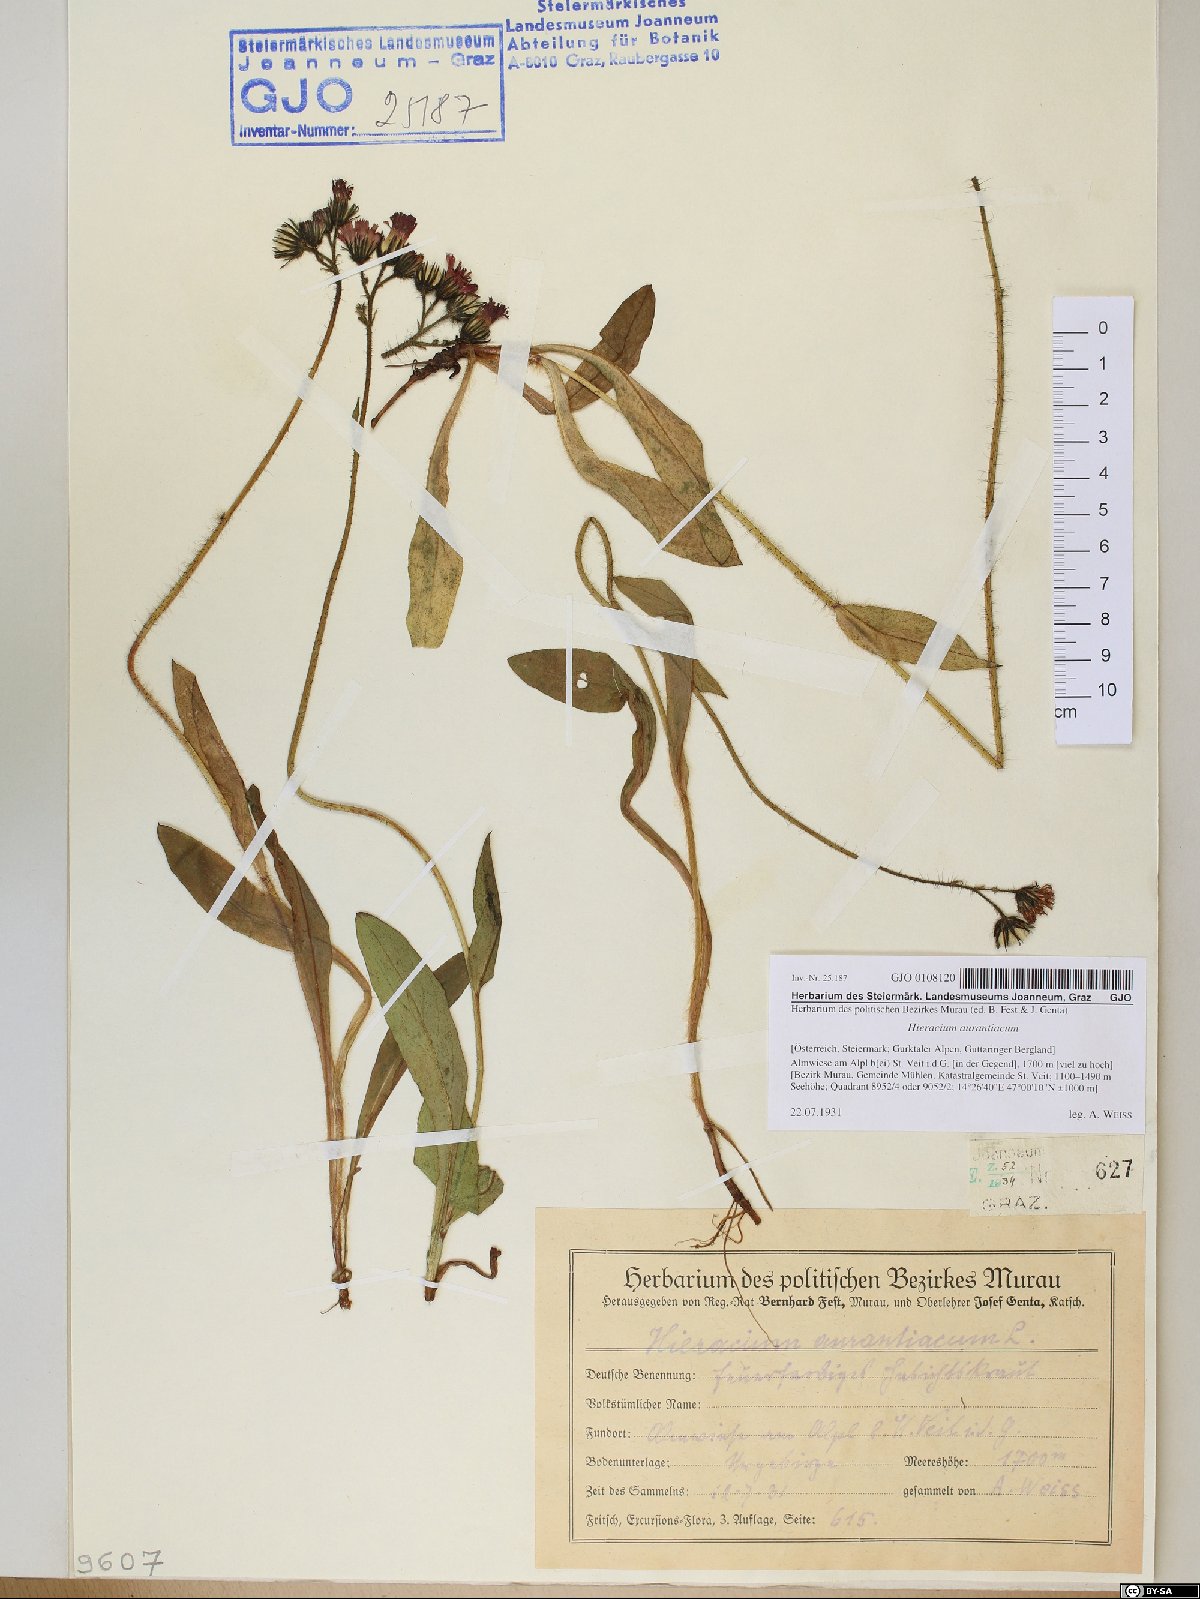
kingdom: Plantae
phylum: Tracheophyta
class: Magnoliopsida
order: Asterales
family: Asteraceae
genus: Pilosella
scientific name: Pilosella aurantiaca
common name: Fox-and-cubs
